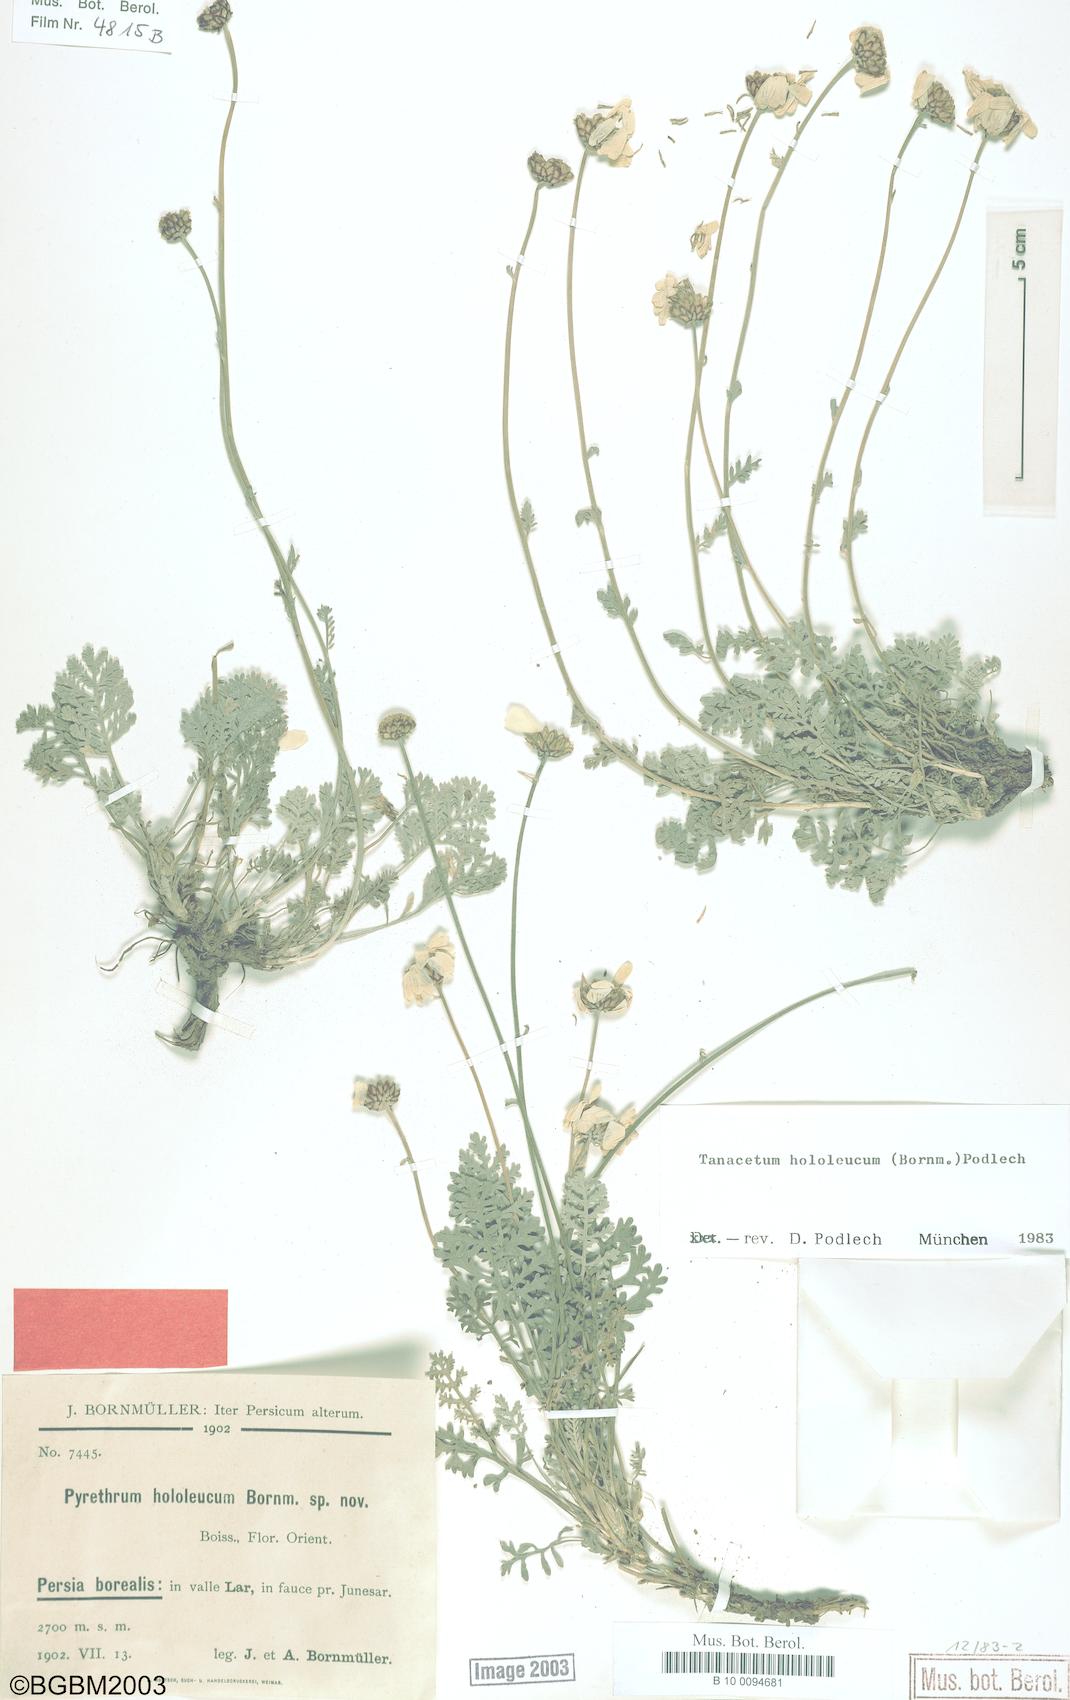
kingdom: Plantae
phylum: Tracheophyta
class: Magnoliopsida
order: Asterales
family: Asteraceae
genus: Tanacetum
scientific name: Tanacetum hololeucum
